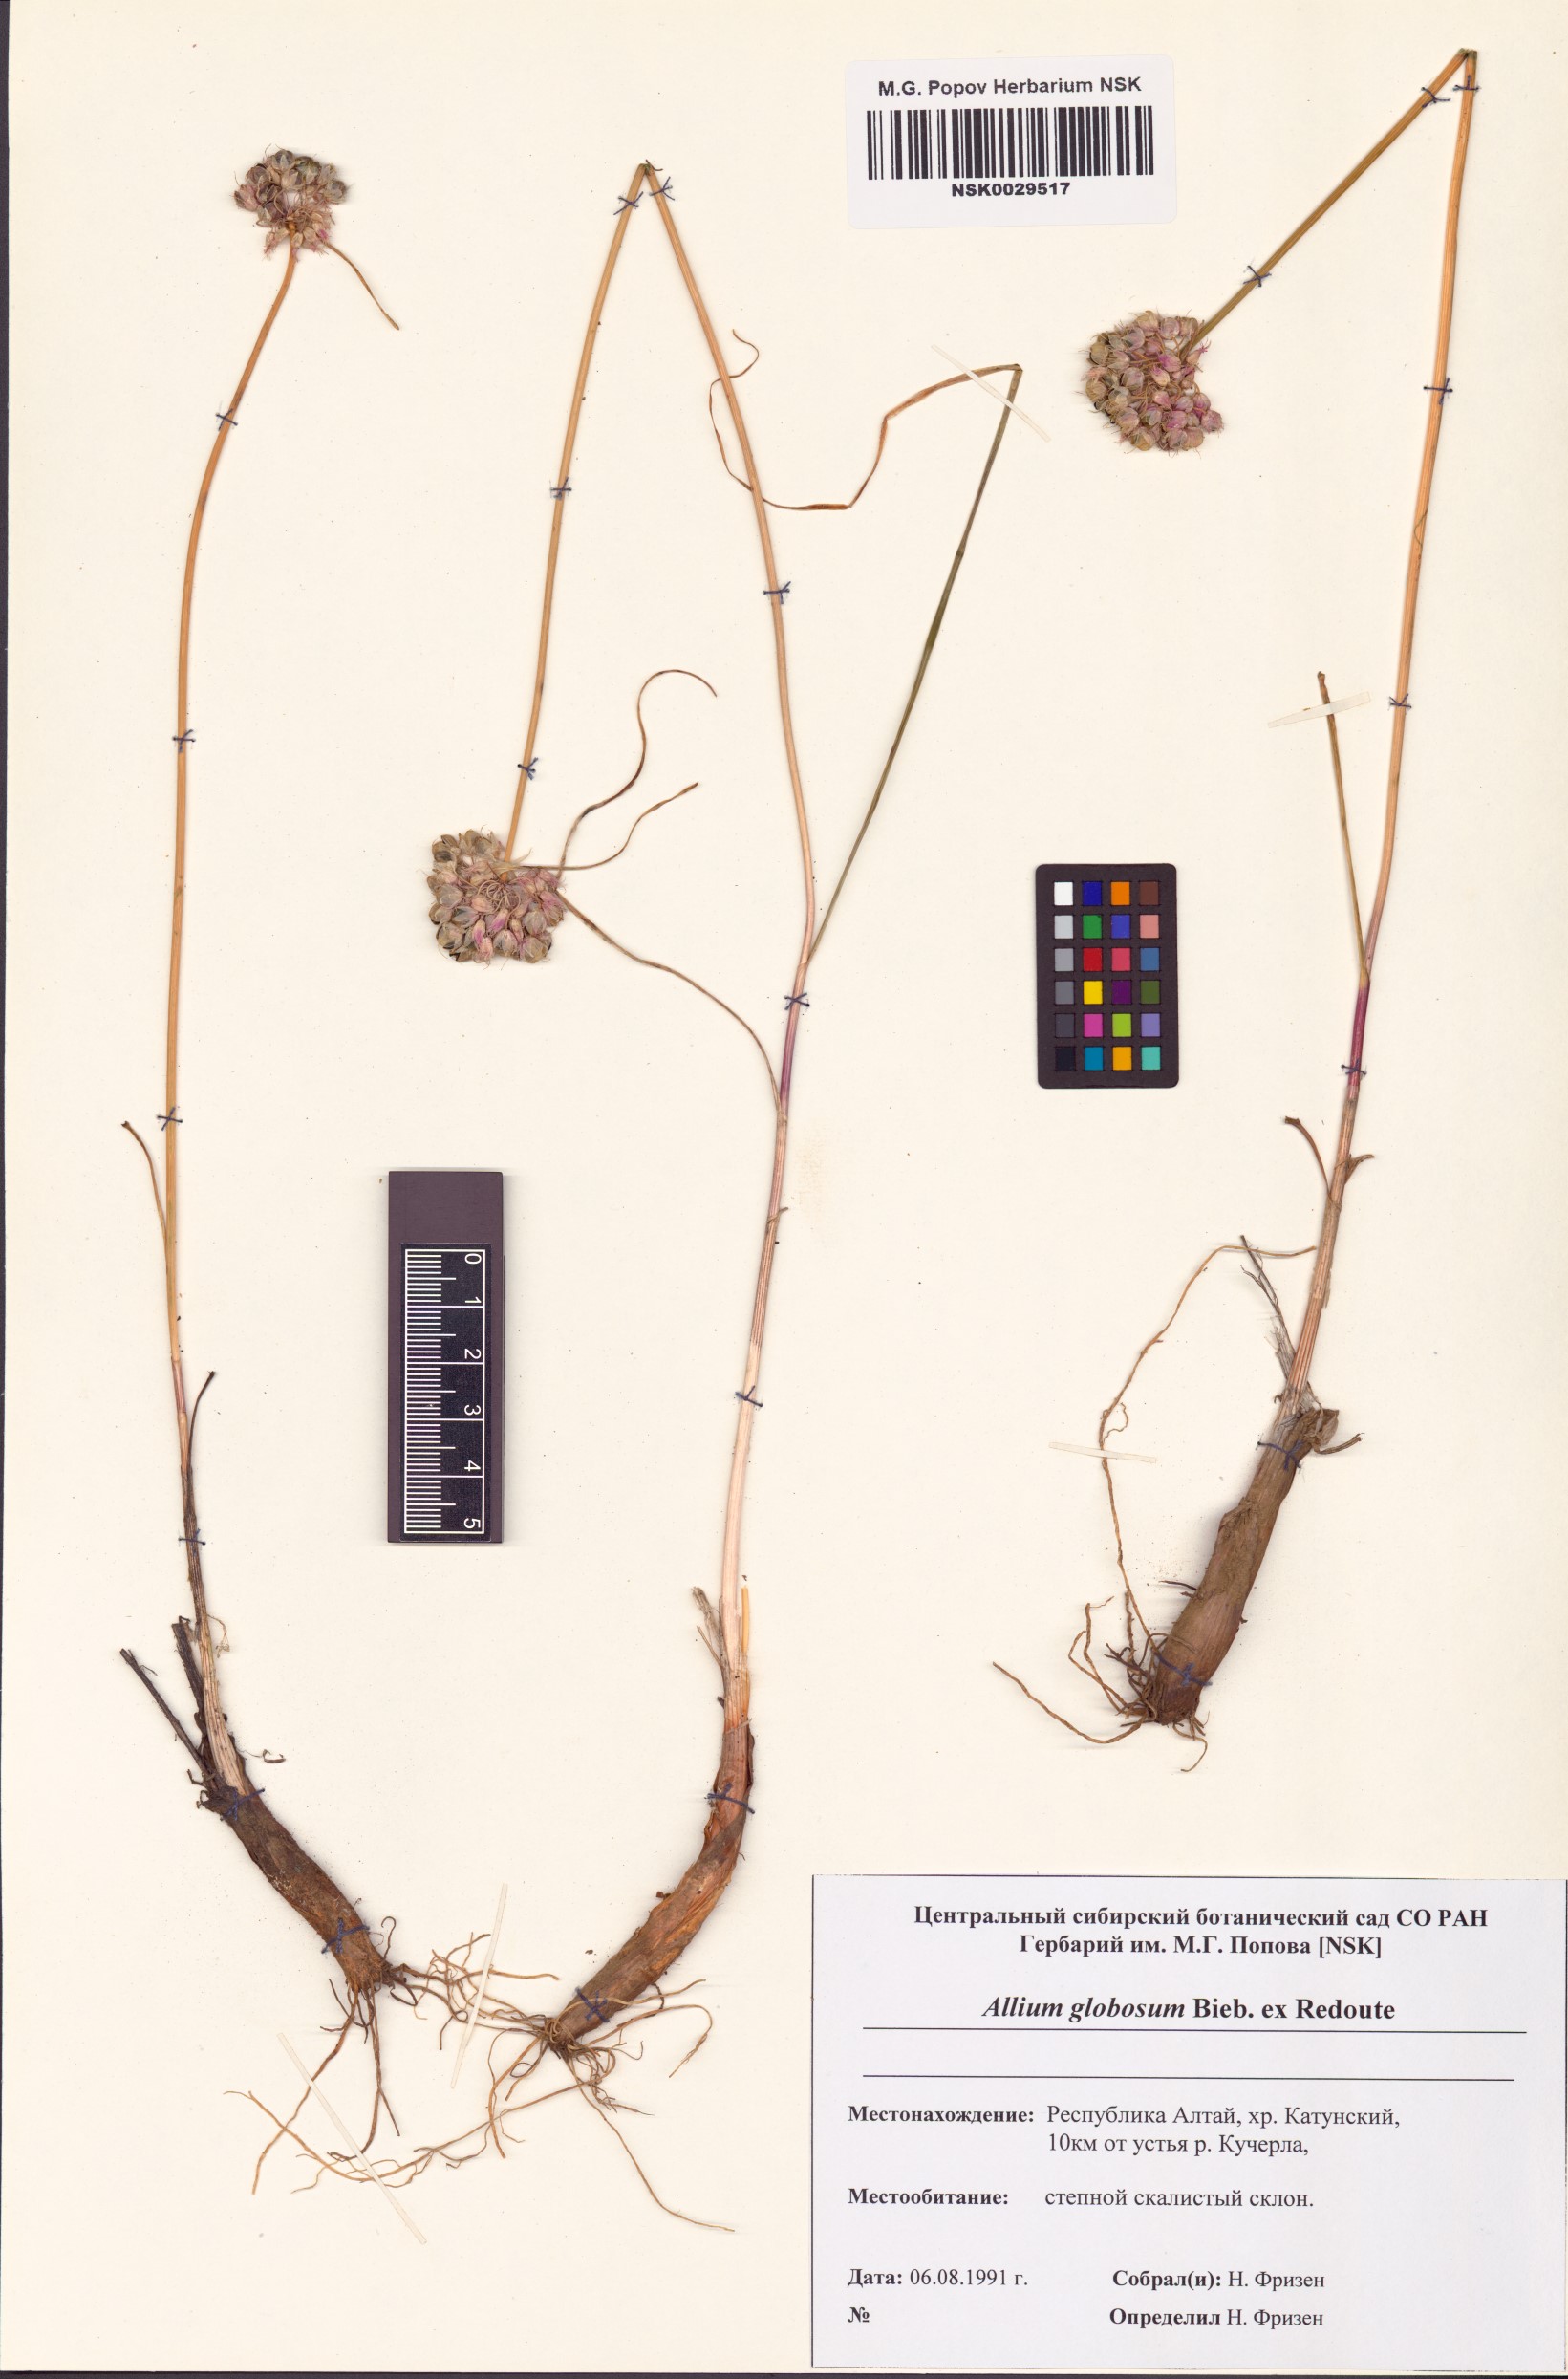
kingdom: Plantae
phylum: Tracheophyta
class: Liliopsida
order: Asparagales
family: Amaryllidaceae
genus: Allium
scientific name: Allium saxatile
